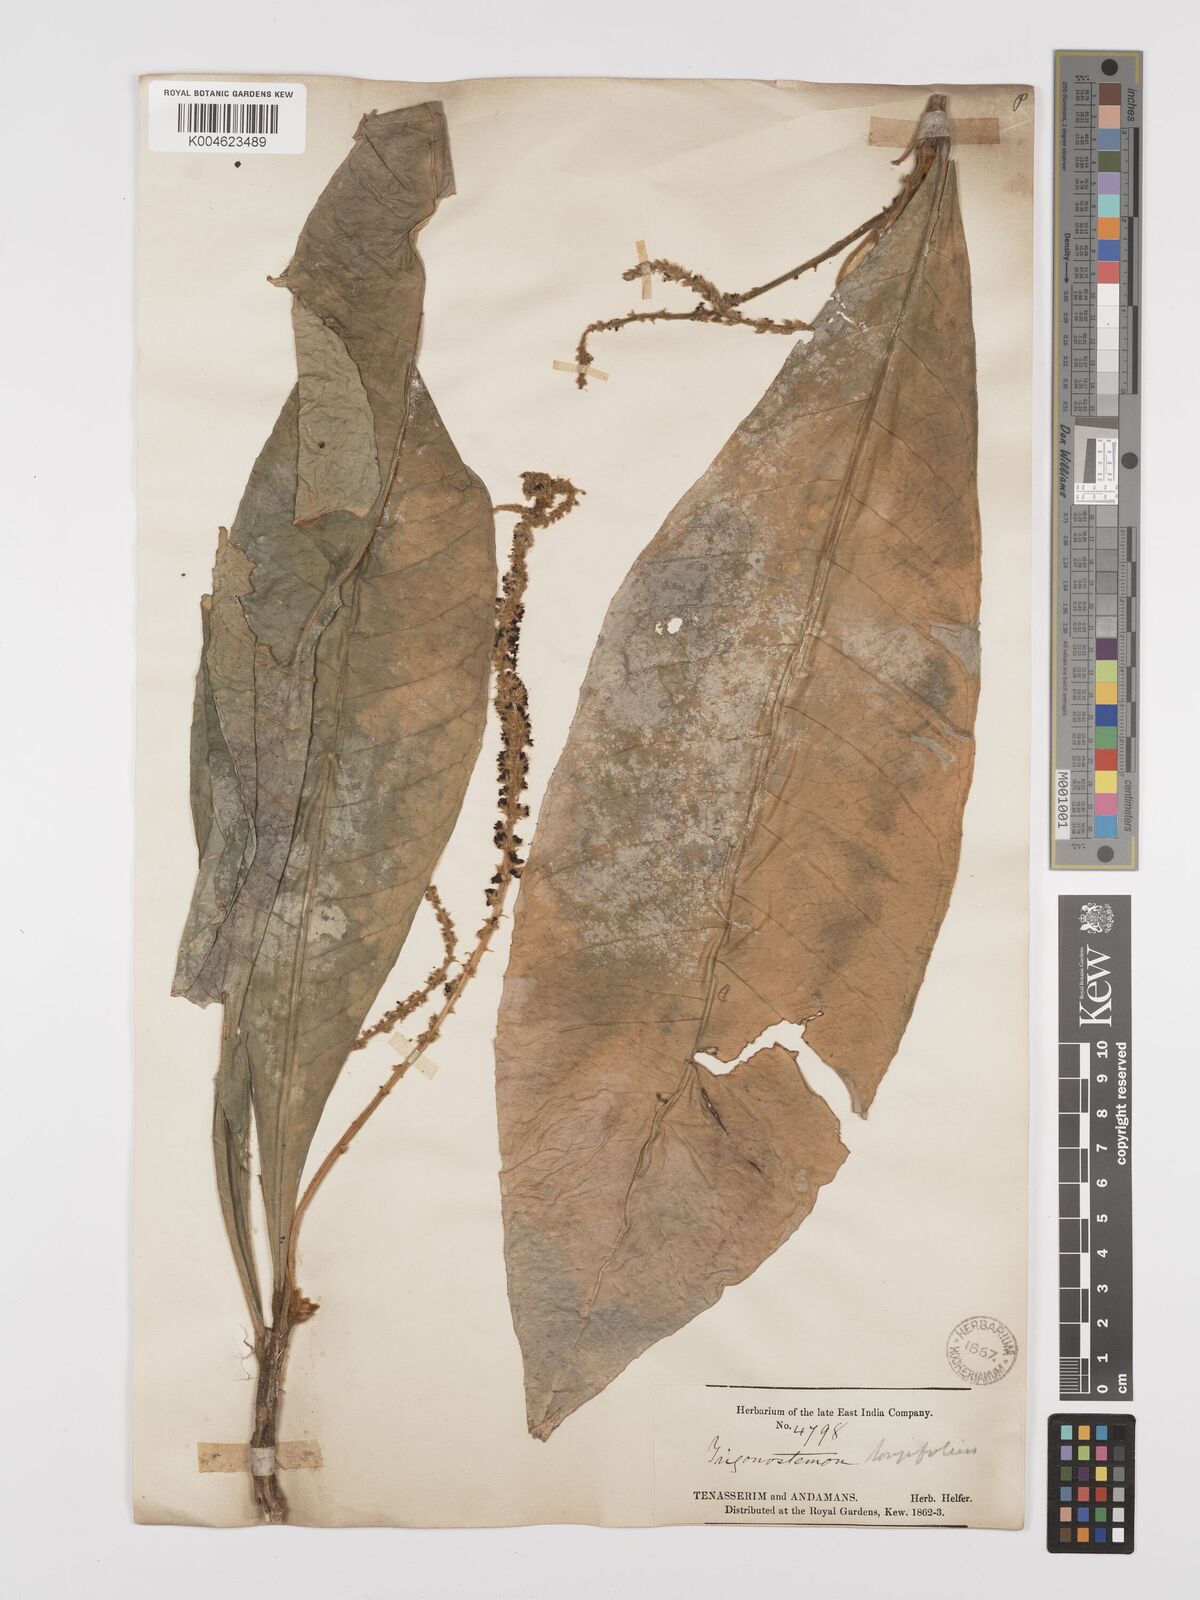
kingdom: Plantae
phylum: Tracheophyta
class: Magnoliopsida
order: Malpighiales
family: Euphorbiaceae
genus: Trigonostemon
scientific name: Trigonostemon longifolius
